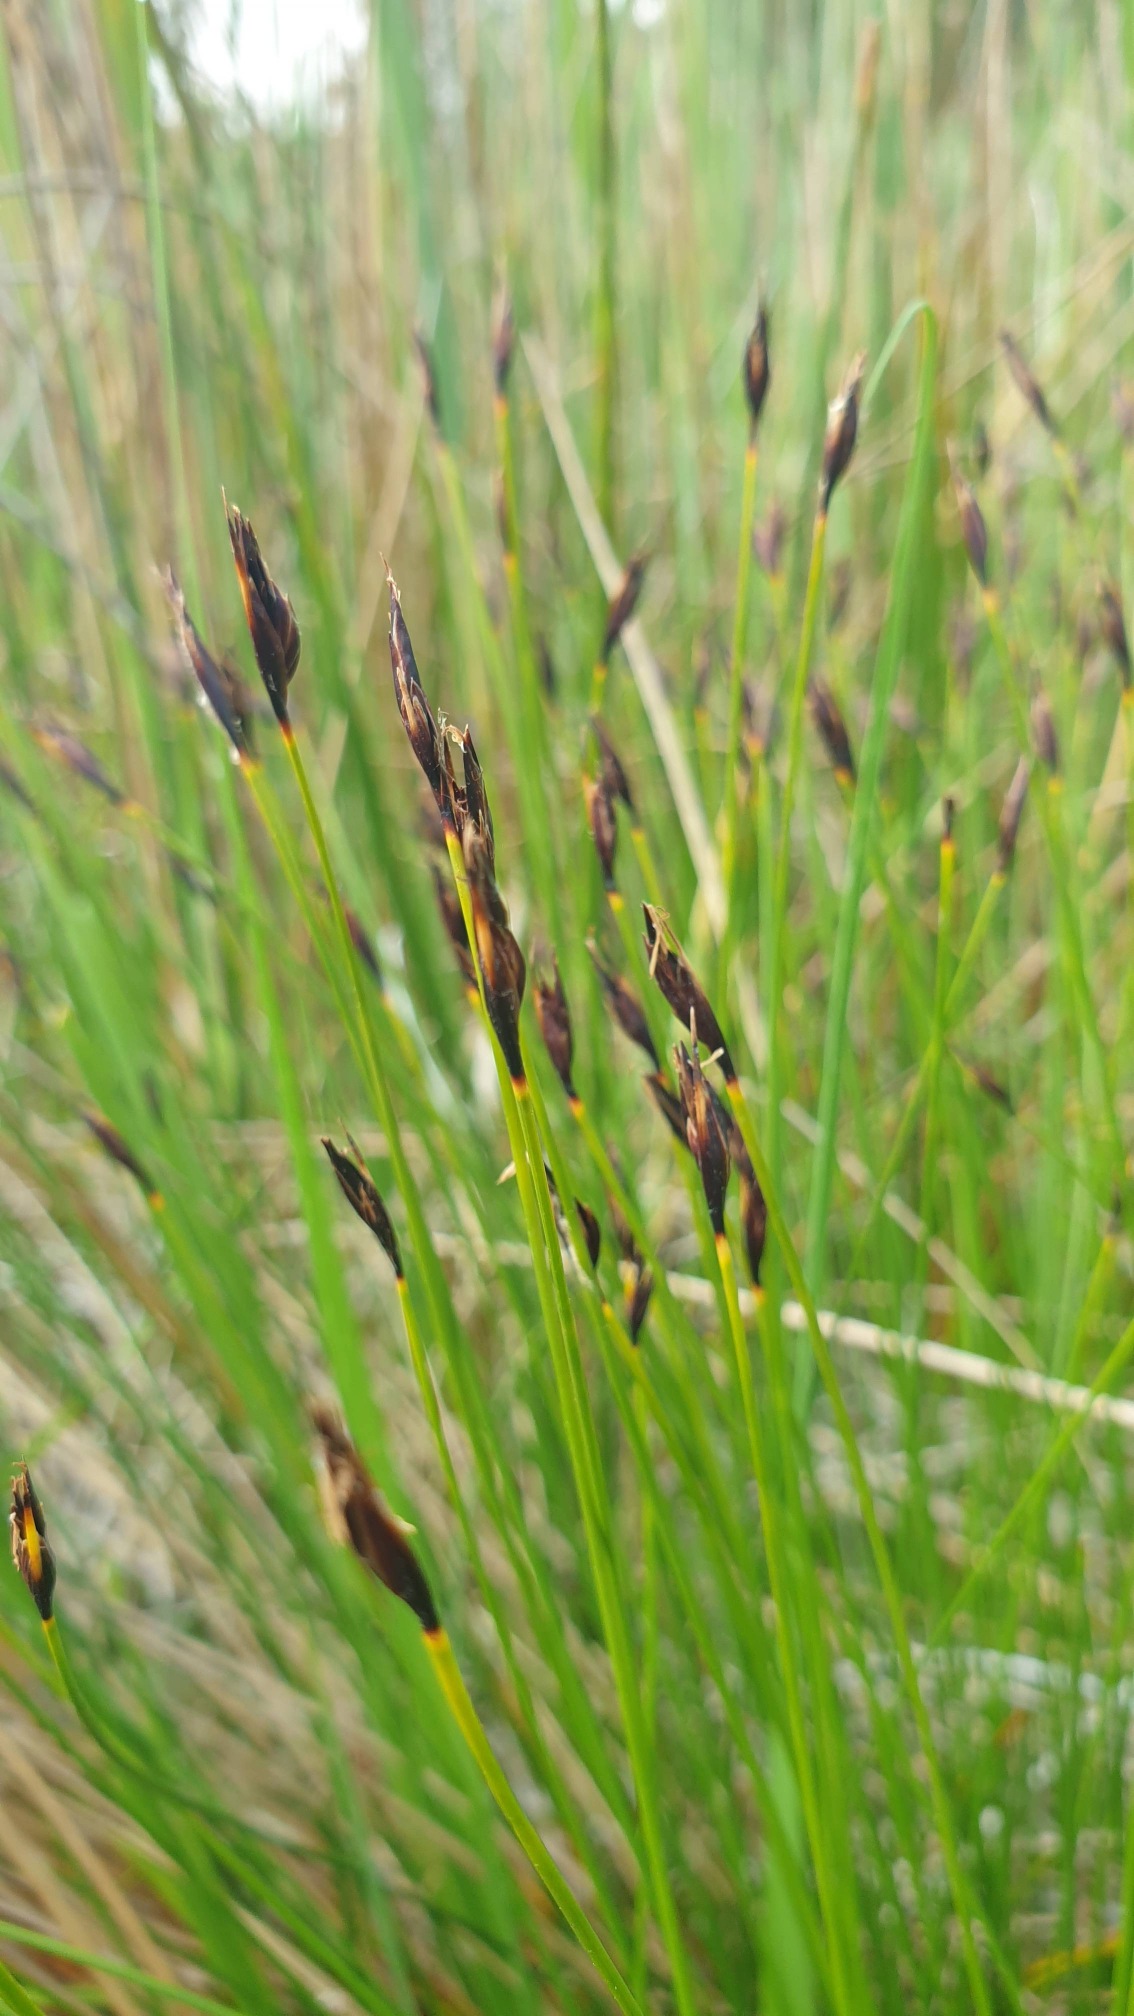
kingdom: Plantae
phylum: Tracheophyta
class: Liliopsida
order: Poales
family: Cyperaceae
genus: Schoenus
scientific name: Schoenus ferrugineus
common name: Rust-skæne
